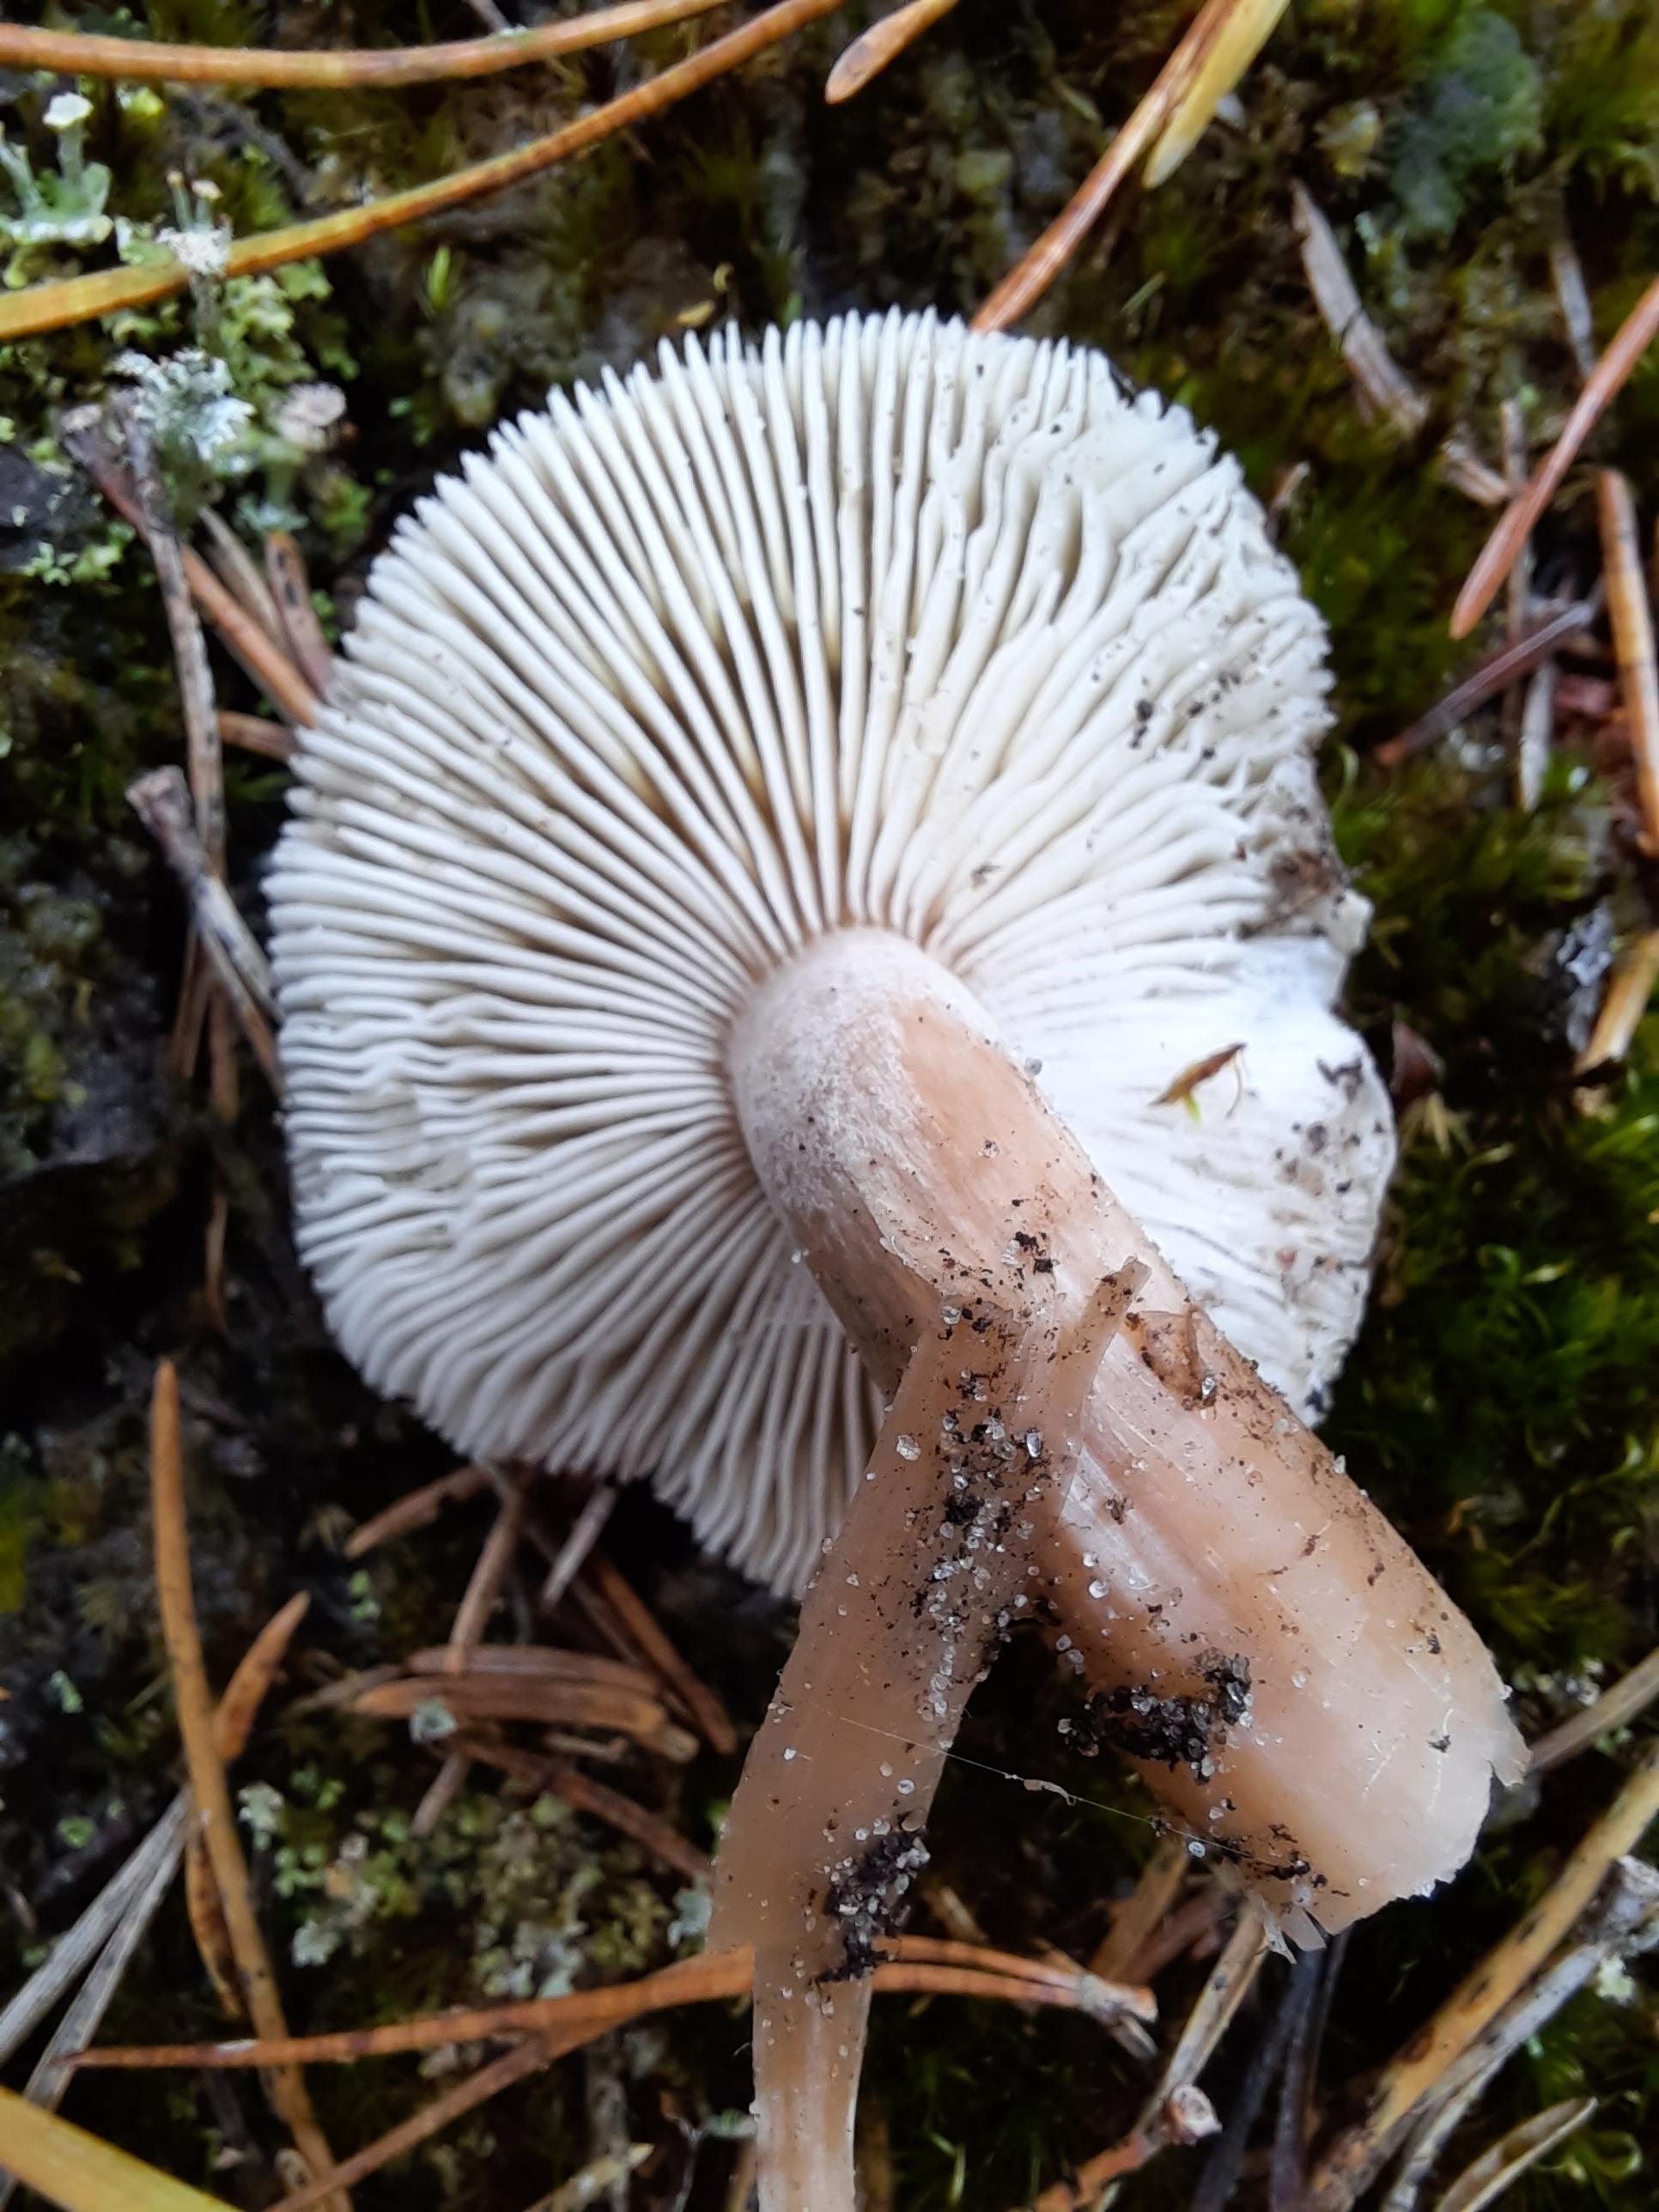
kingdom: Fungi
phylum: Basidiomycota
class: Agaricomycetes
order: Agaricales
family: Tricholomataceae
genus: Tricholoma
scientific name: Tricholoma sudum
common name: tør ridderhat
